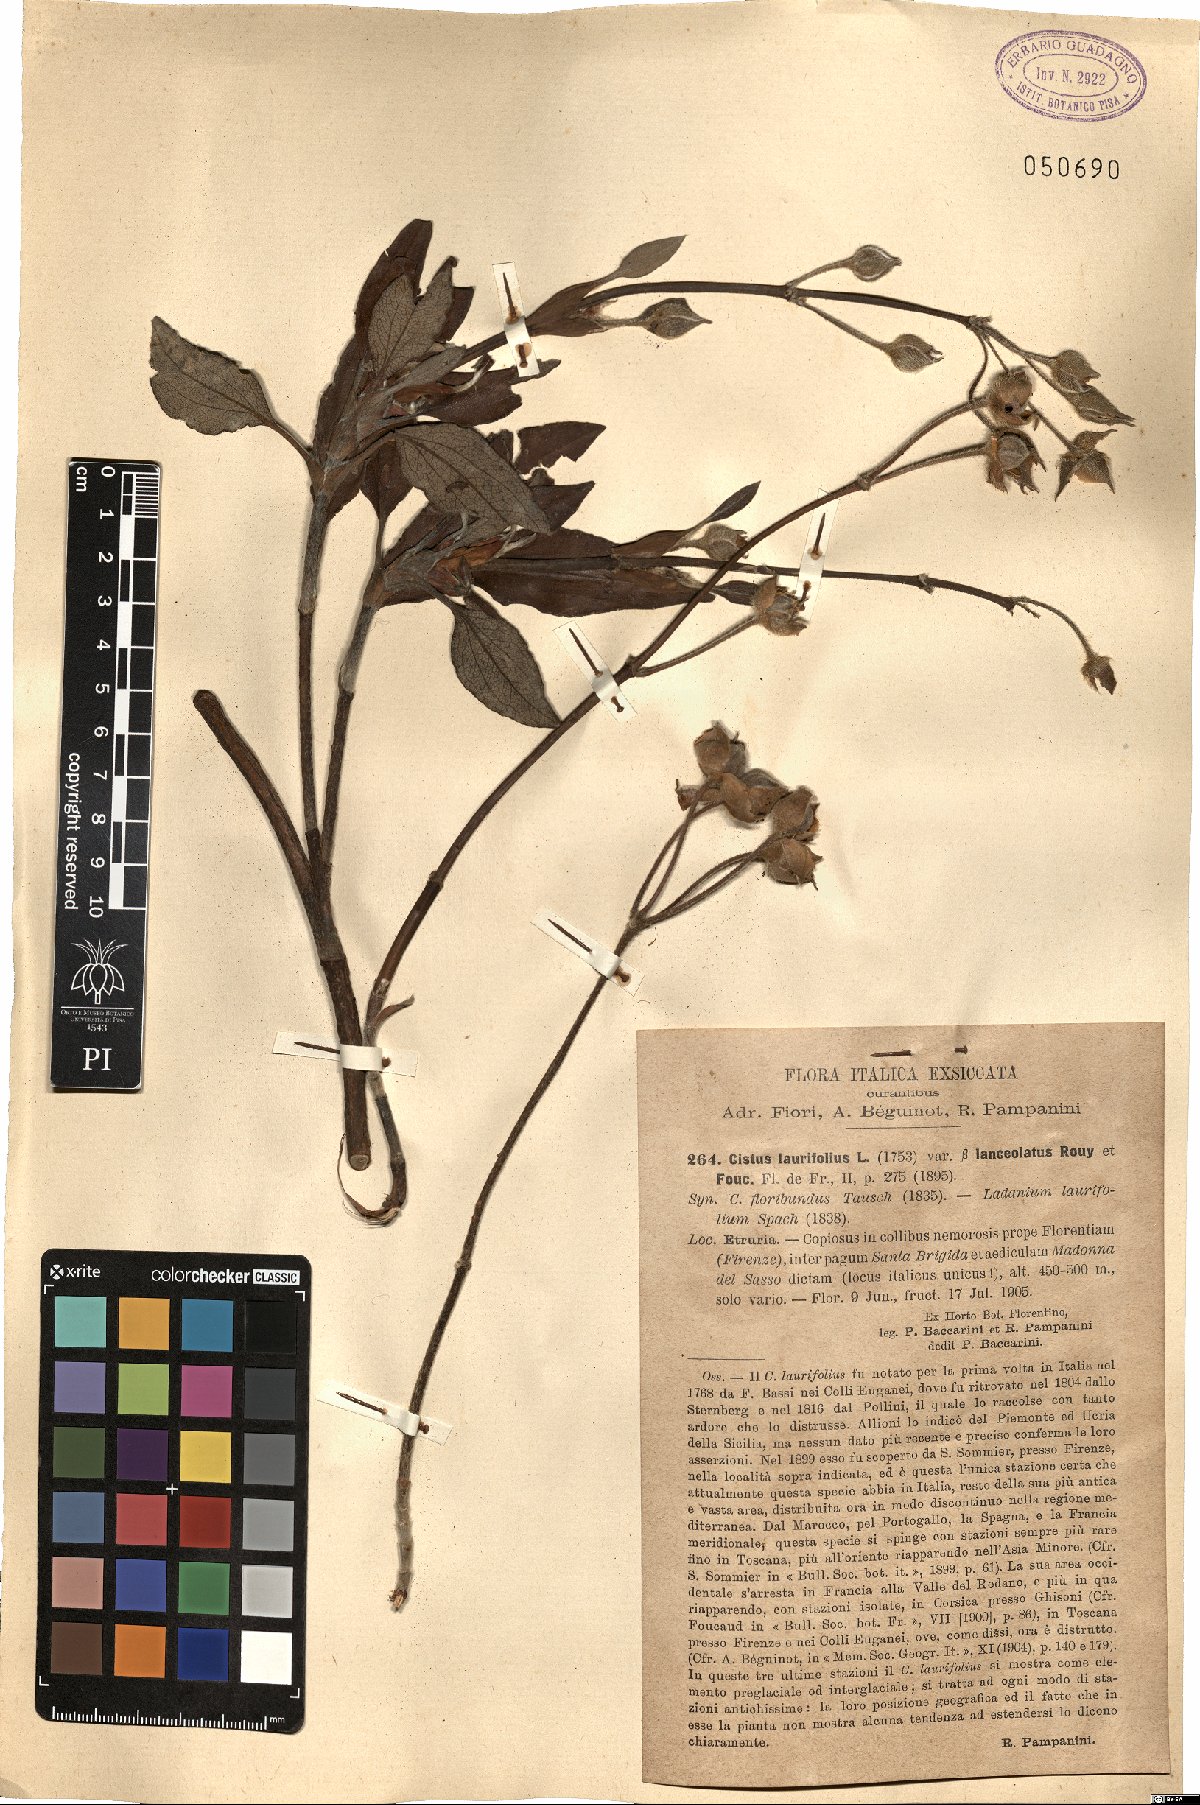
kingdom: Plantae
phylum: Tracheophyta
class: Magnoliopsida
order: Malvales
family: Cistaceae
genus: Cistus
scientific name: Cistus laurifolius
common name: Laurel-leaved cistus
